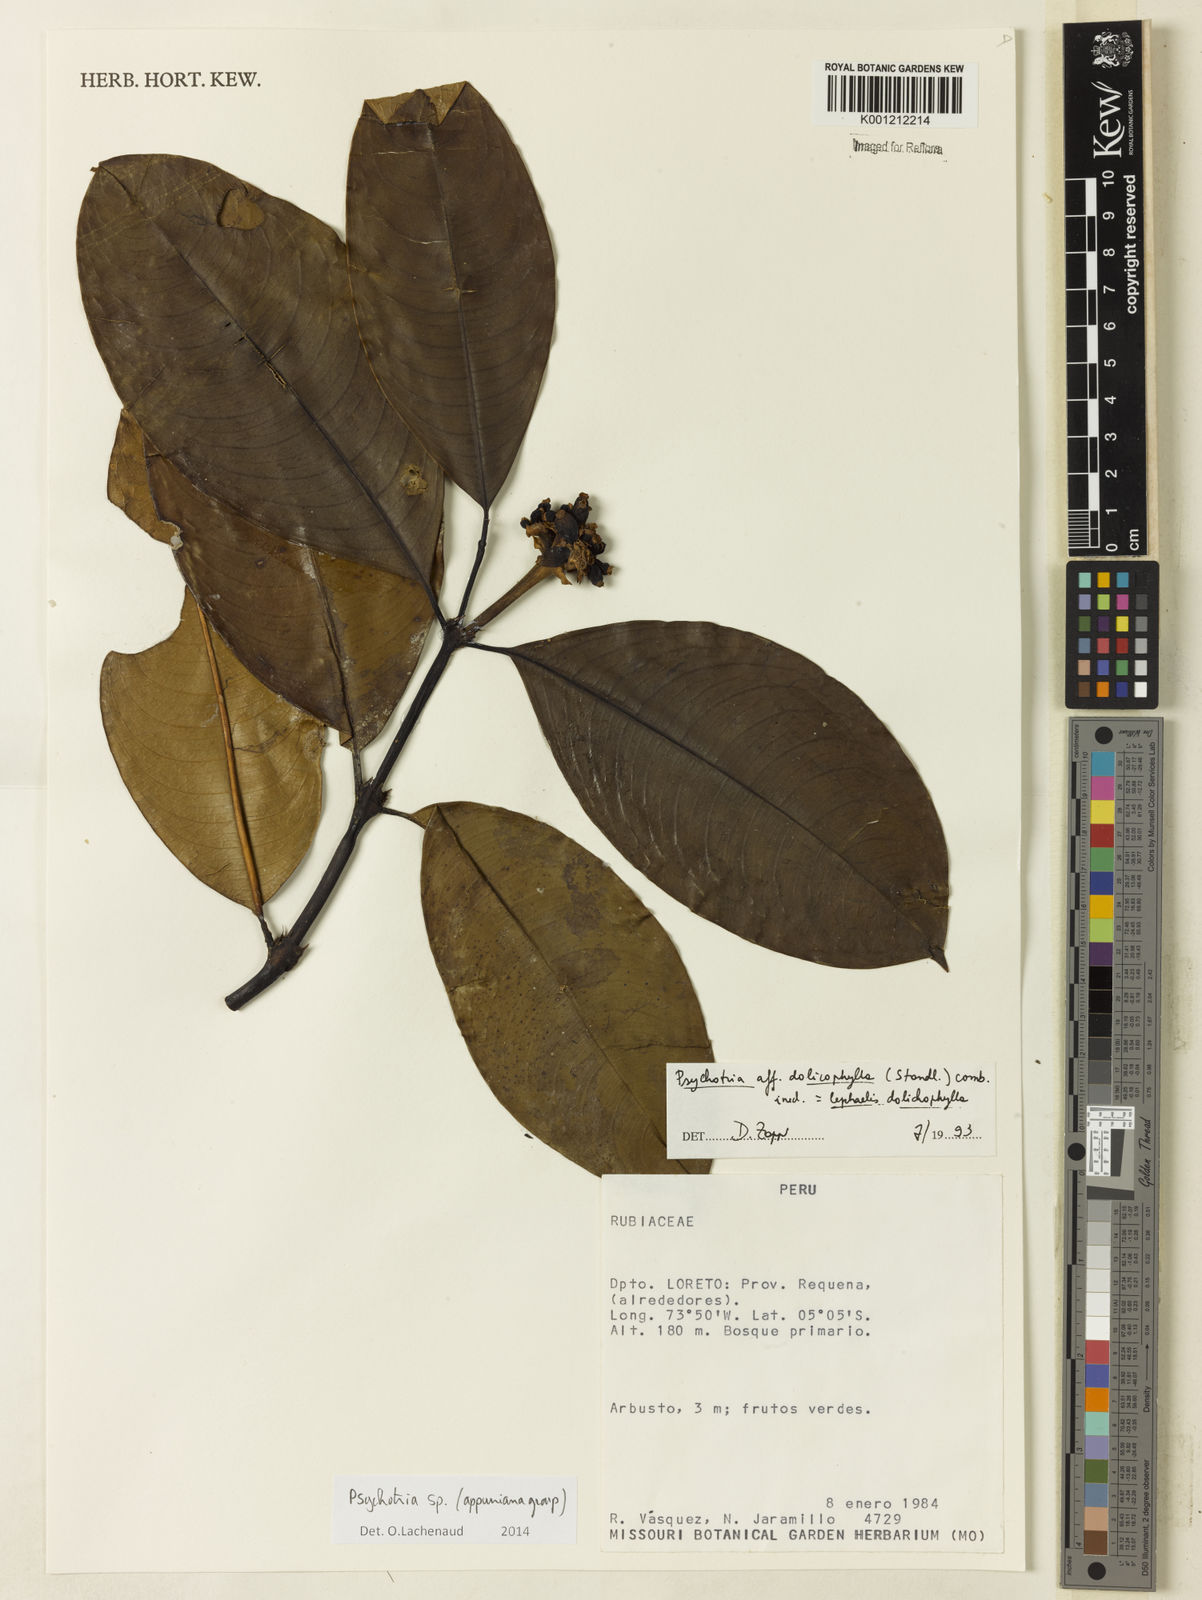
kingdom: Plantae
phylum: Tracheophyta
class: Magnoliopsida
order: Gentianales
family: Rubiaceae
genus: Psychotria
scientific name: Psychotria
